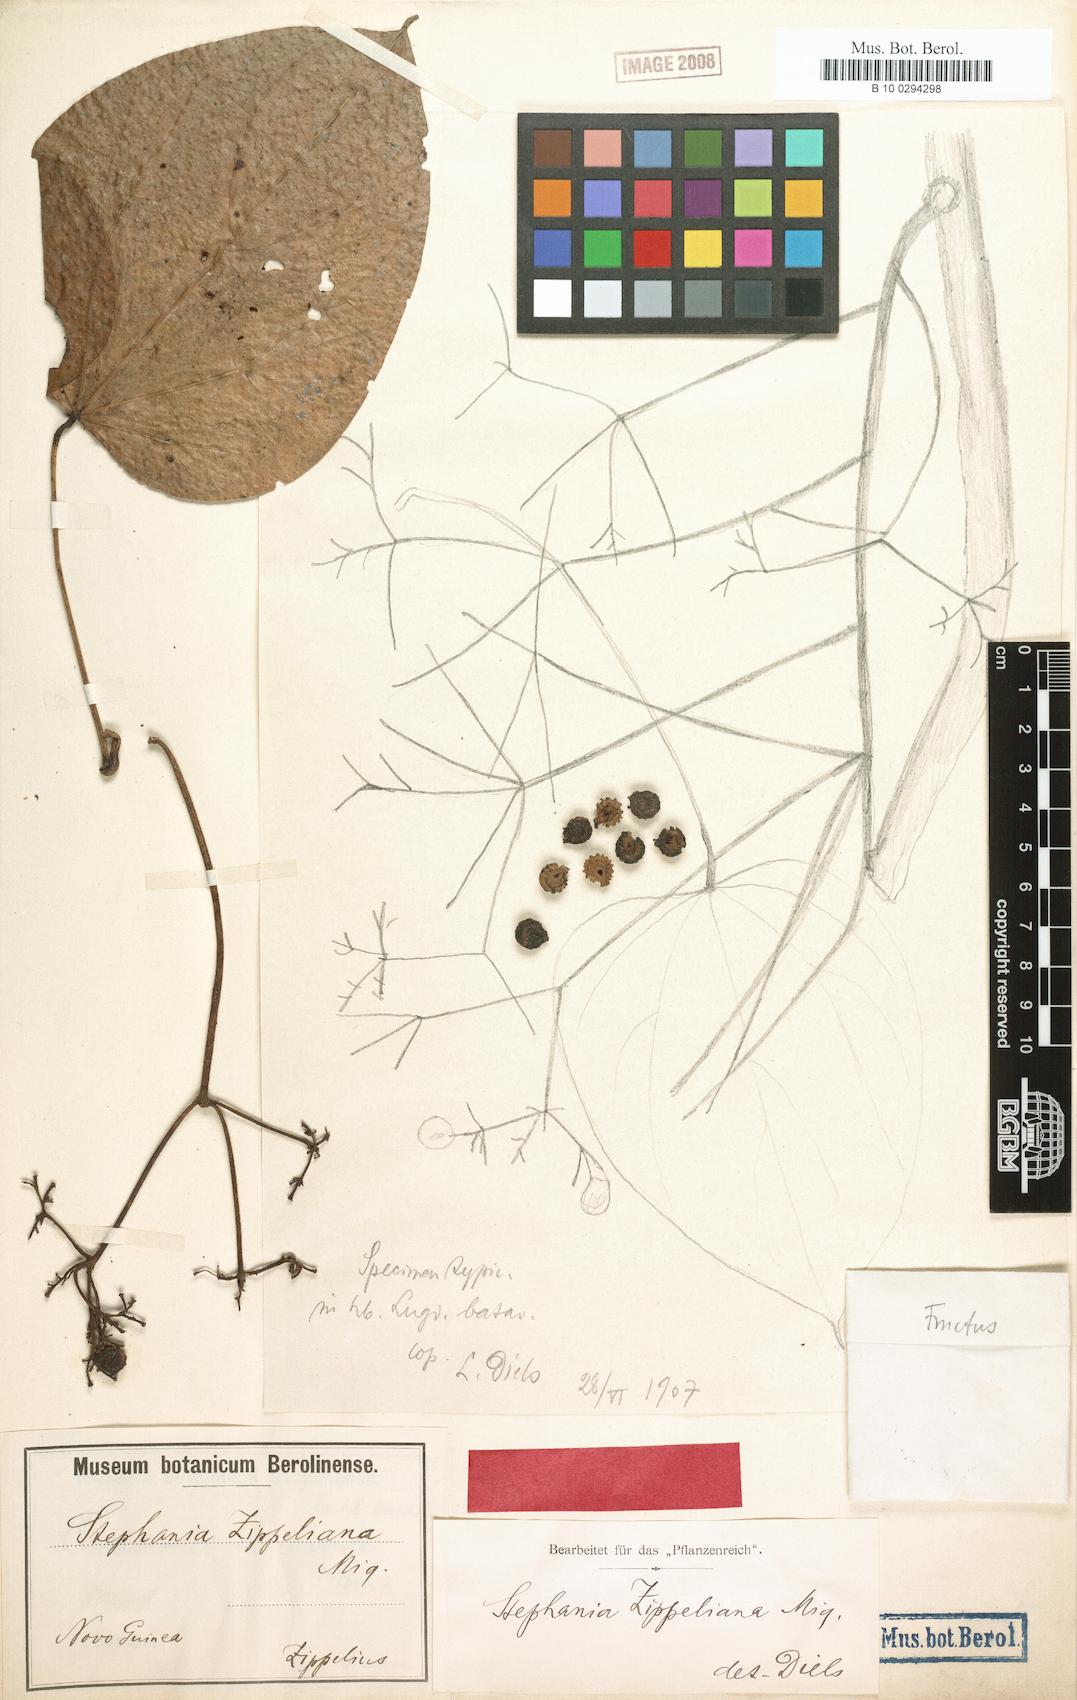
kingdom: Plantae
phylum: Tracheophyta
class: Magnoliopsida
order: Ranunculales
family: Menispermaceae
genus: Stephania
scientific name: Stephania zippeliana
